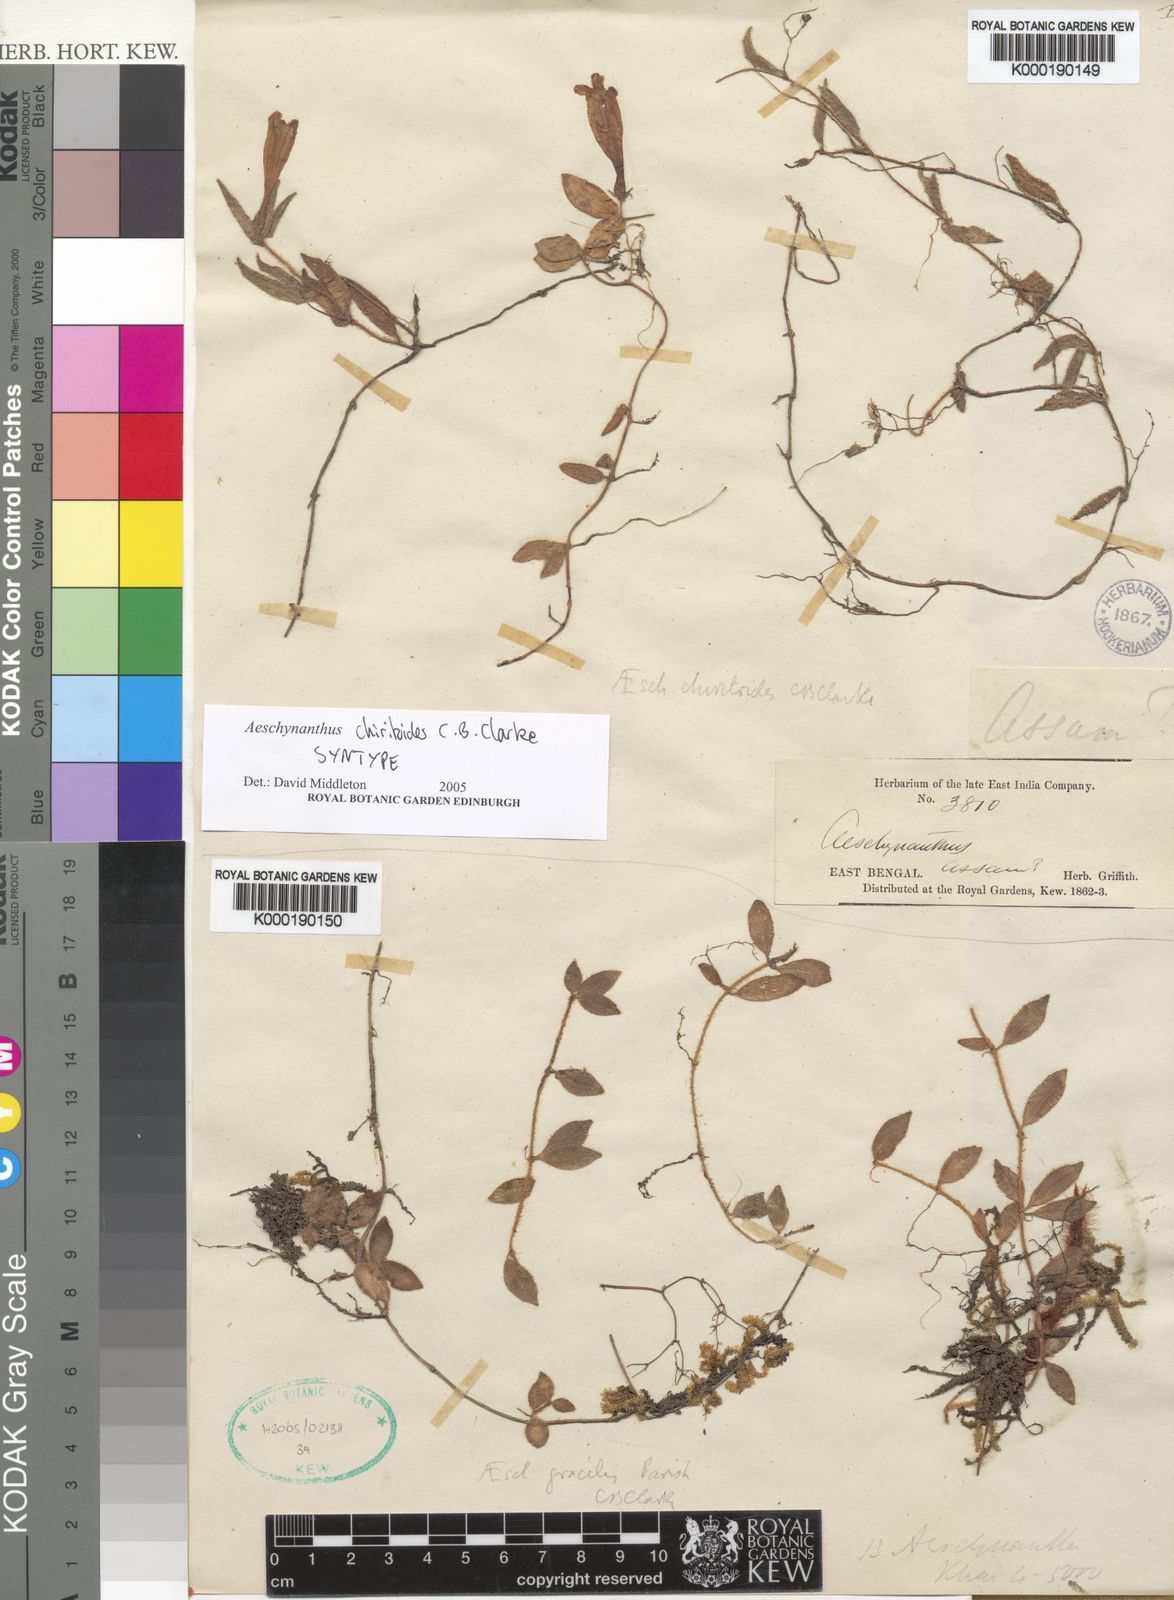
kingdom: Plantae
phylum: Tracheophyta
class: Magnoliopsida
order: Lamiales
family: Gesneriaceae
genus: Aeschynanthus
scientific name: Aeschynanthus
